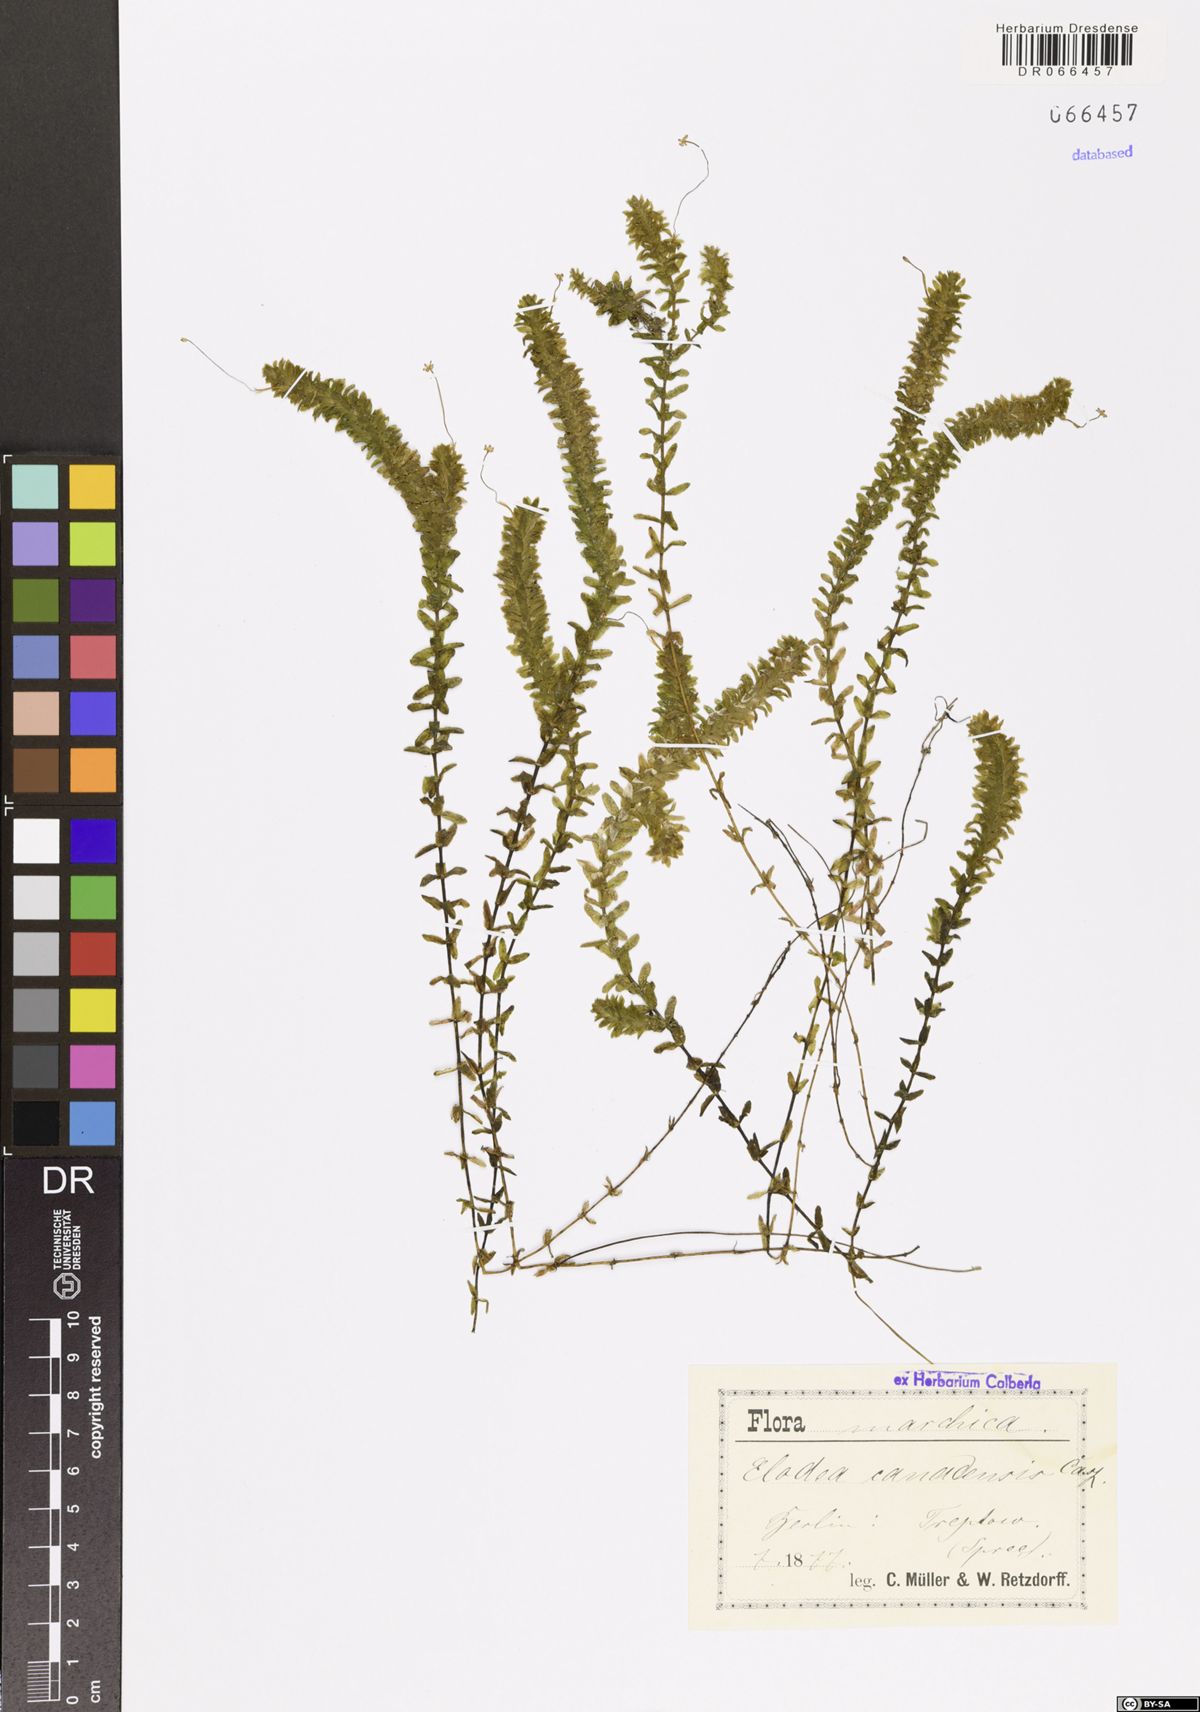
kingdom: Plantae
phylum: Tracheophyta
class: Liliopsida
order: Alismatales
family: Hydrocharitaceae
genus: Elodea
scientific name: Elodea canadensis
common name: Canadian waterweed
